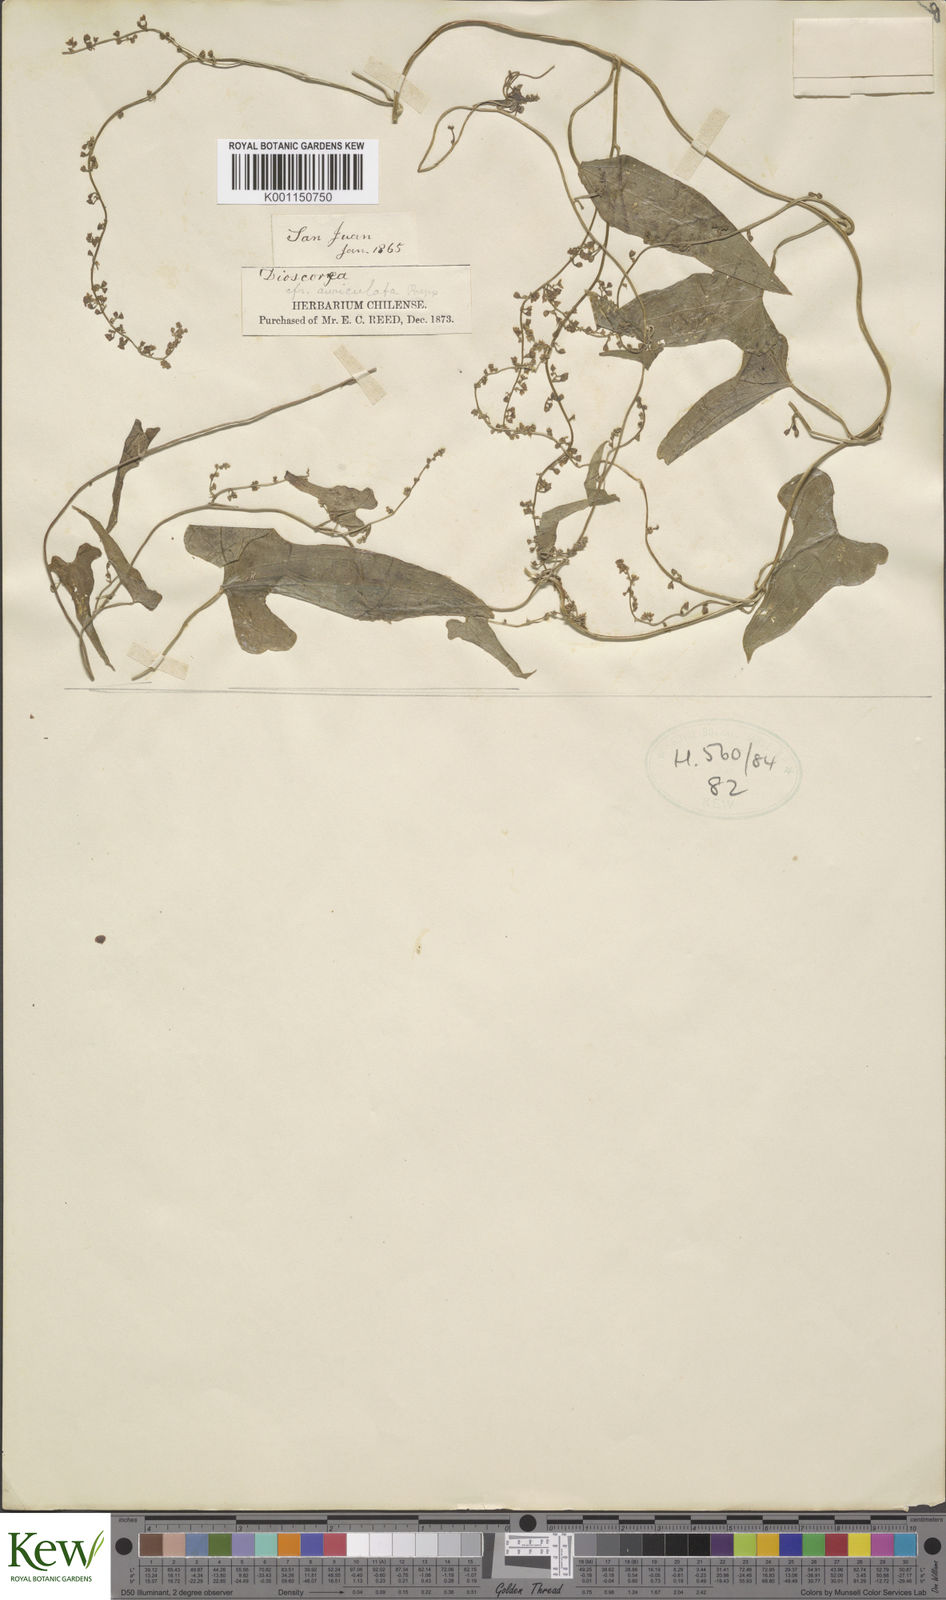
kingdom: Plantae
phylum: Tracheophyta
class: Liliopsida
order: Dioscoreales
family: Dioscoreaceae
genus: Dioscorea
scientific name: Dioscorea
